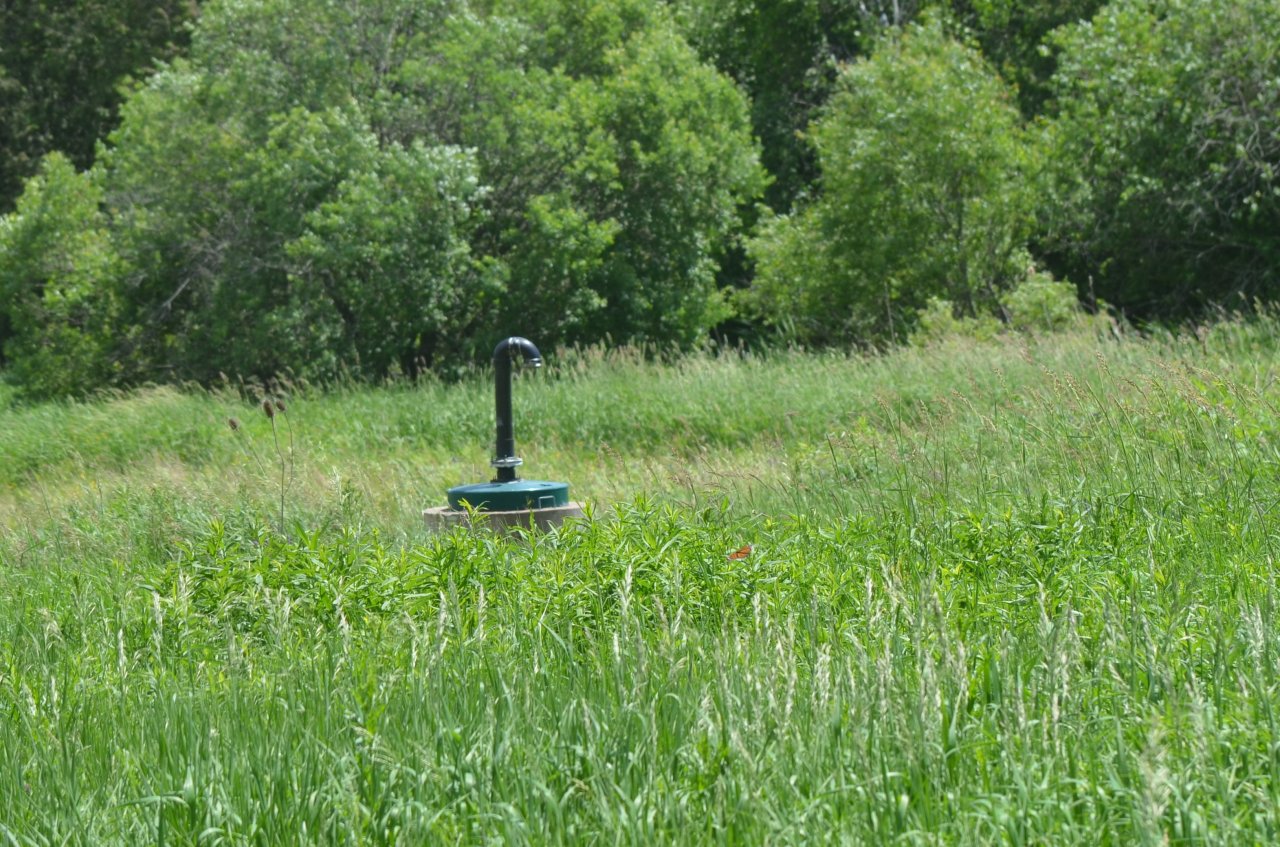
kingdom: Animalia
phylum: Arthropoda
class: Insecta
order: Lepidoptera
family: Nymphalidae
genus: Danaus
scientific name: Danaus plexippus
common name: Monarch
